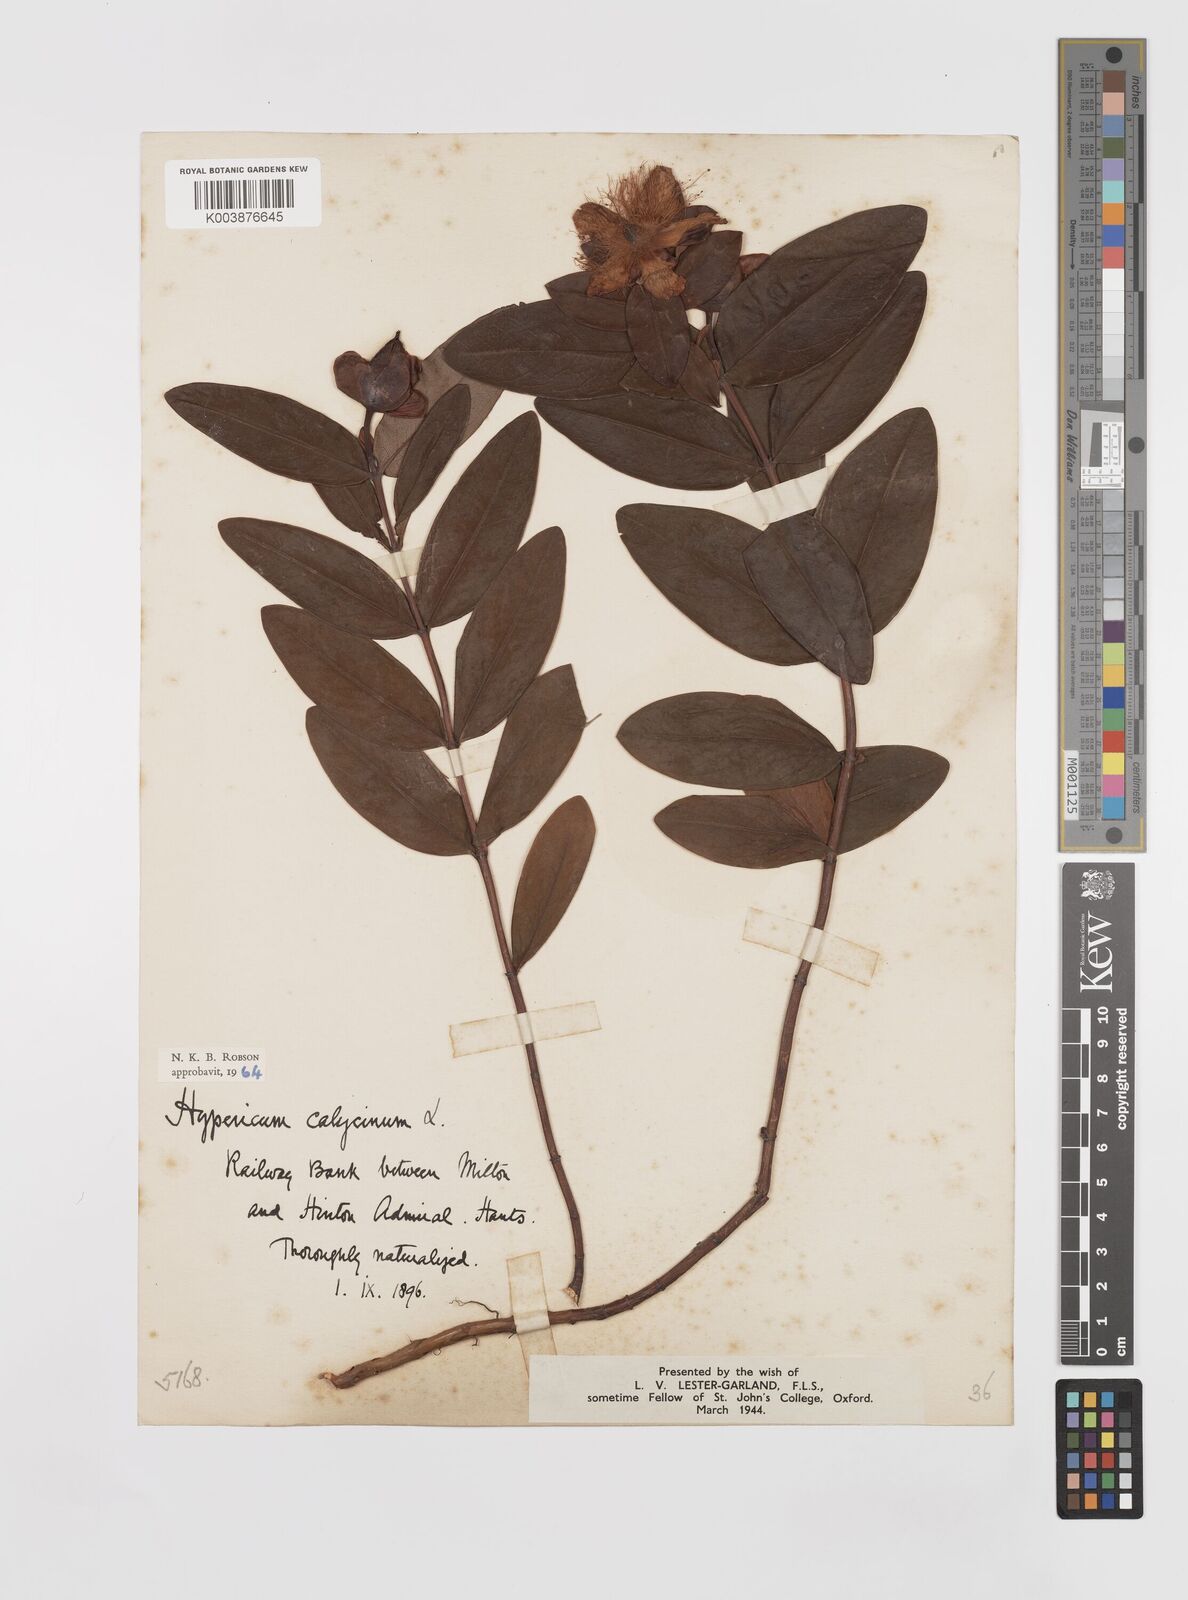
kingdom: Plantae
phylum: Tracheophyta
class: Magnoliopsida
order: Malpighiales
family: Hypericaceae
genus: Hypericum
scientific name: Hypericum calycinum
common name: Rose-of-sharon
